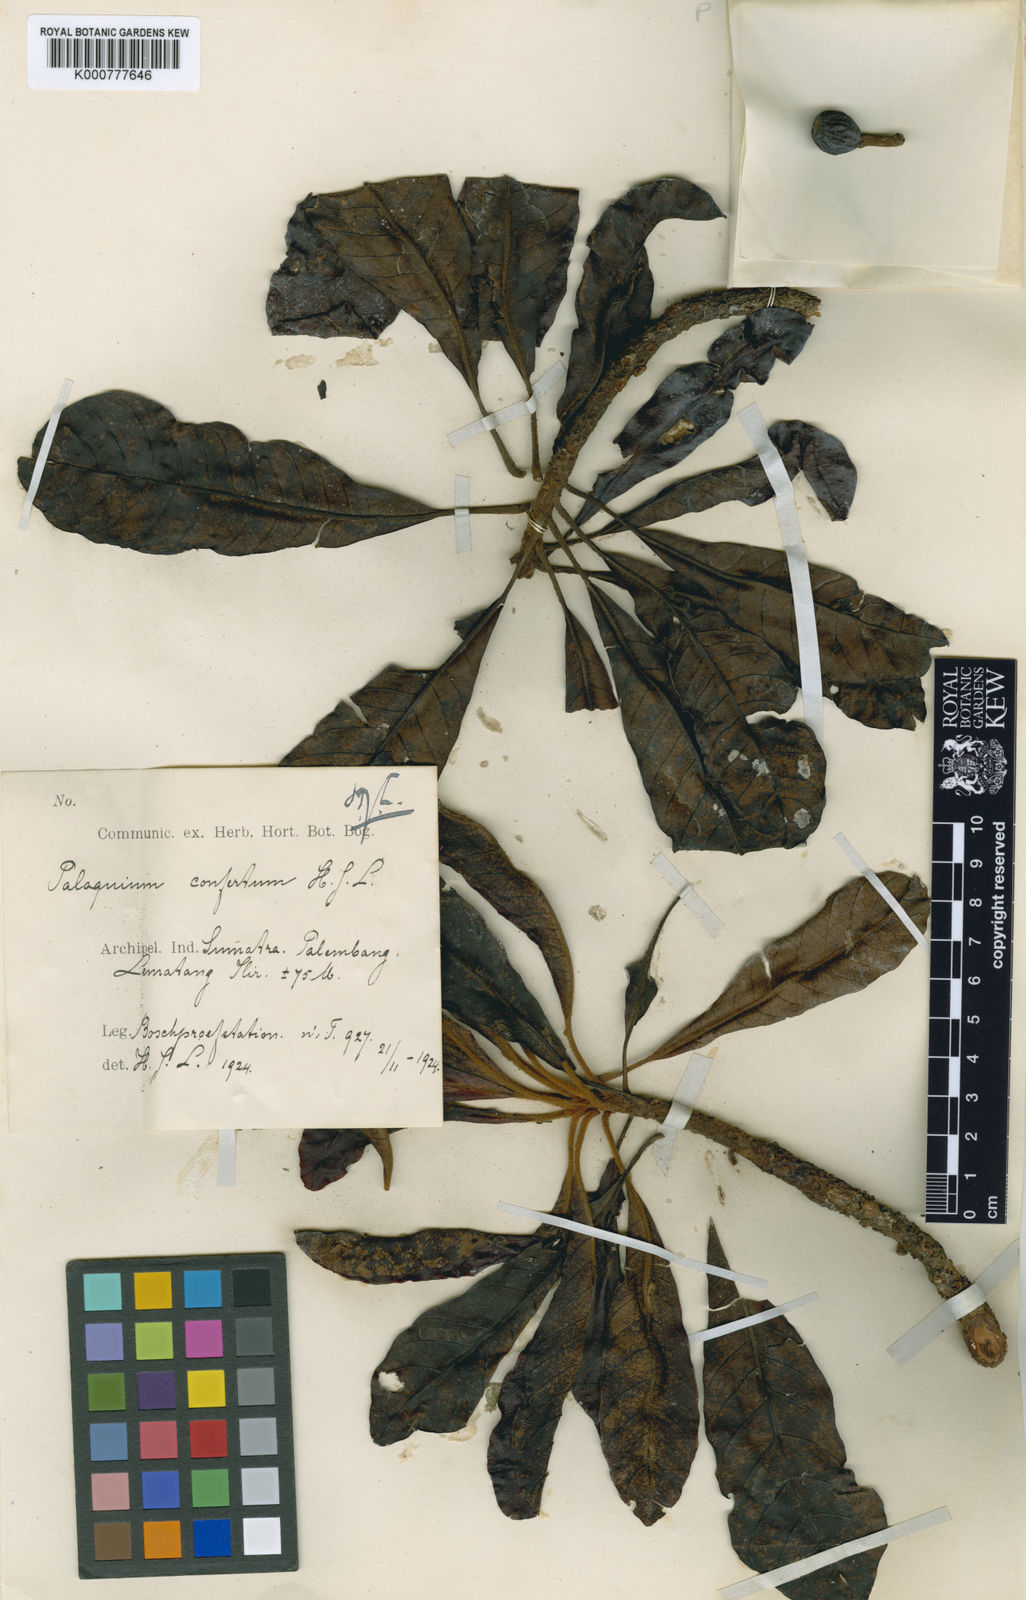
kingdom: Plantae
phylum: Tracheophyta
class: Magnoliopsida
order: Ericales
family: Sapotaceae
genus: Palaquium
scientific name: Palaquium confertum
